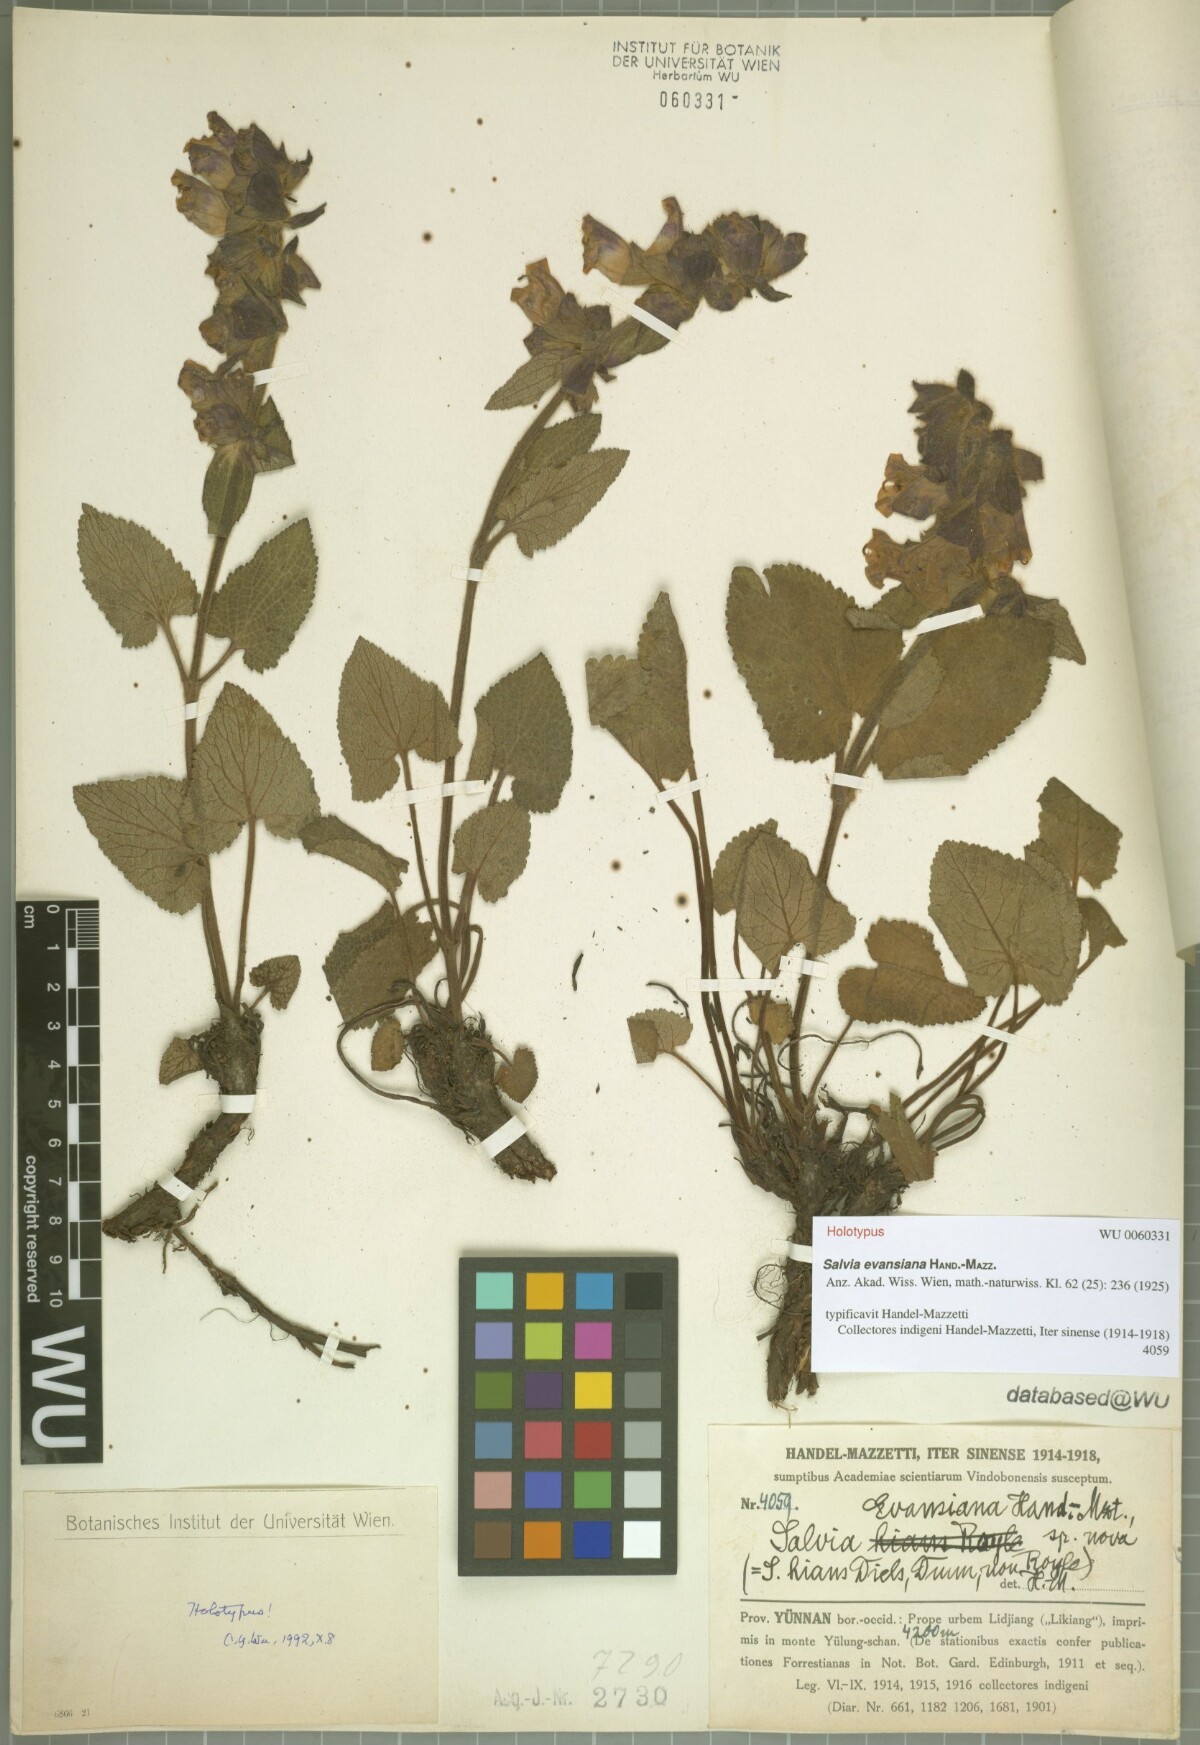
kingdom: Plantae
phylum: Tracheophyta
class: Magnoliopsida
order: Lamiales
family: Lamiaceae
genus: Salvia
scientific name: Salvia evansiana
